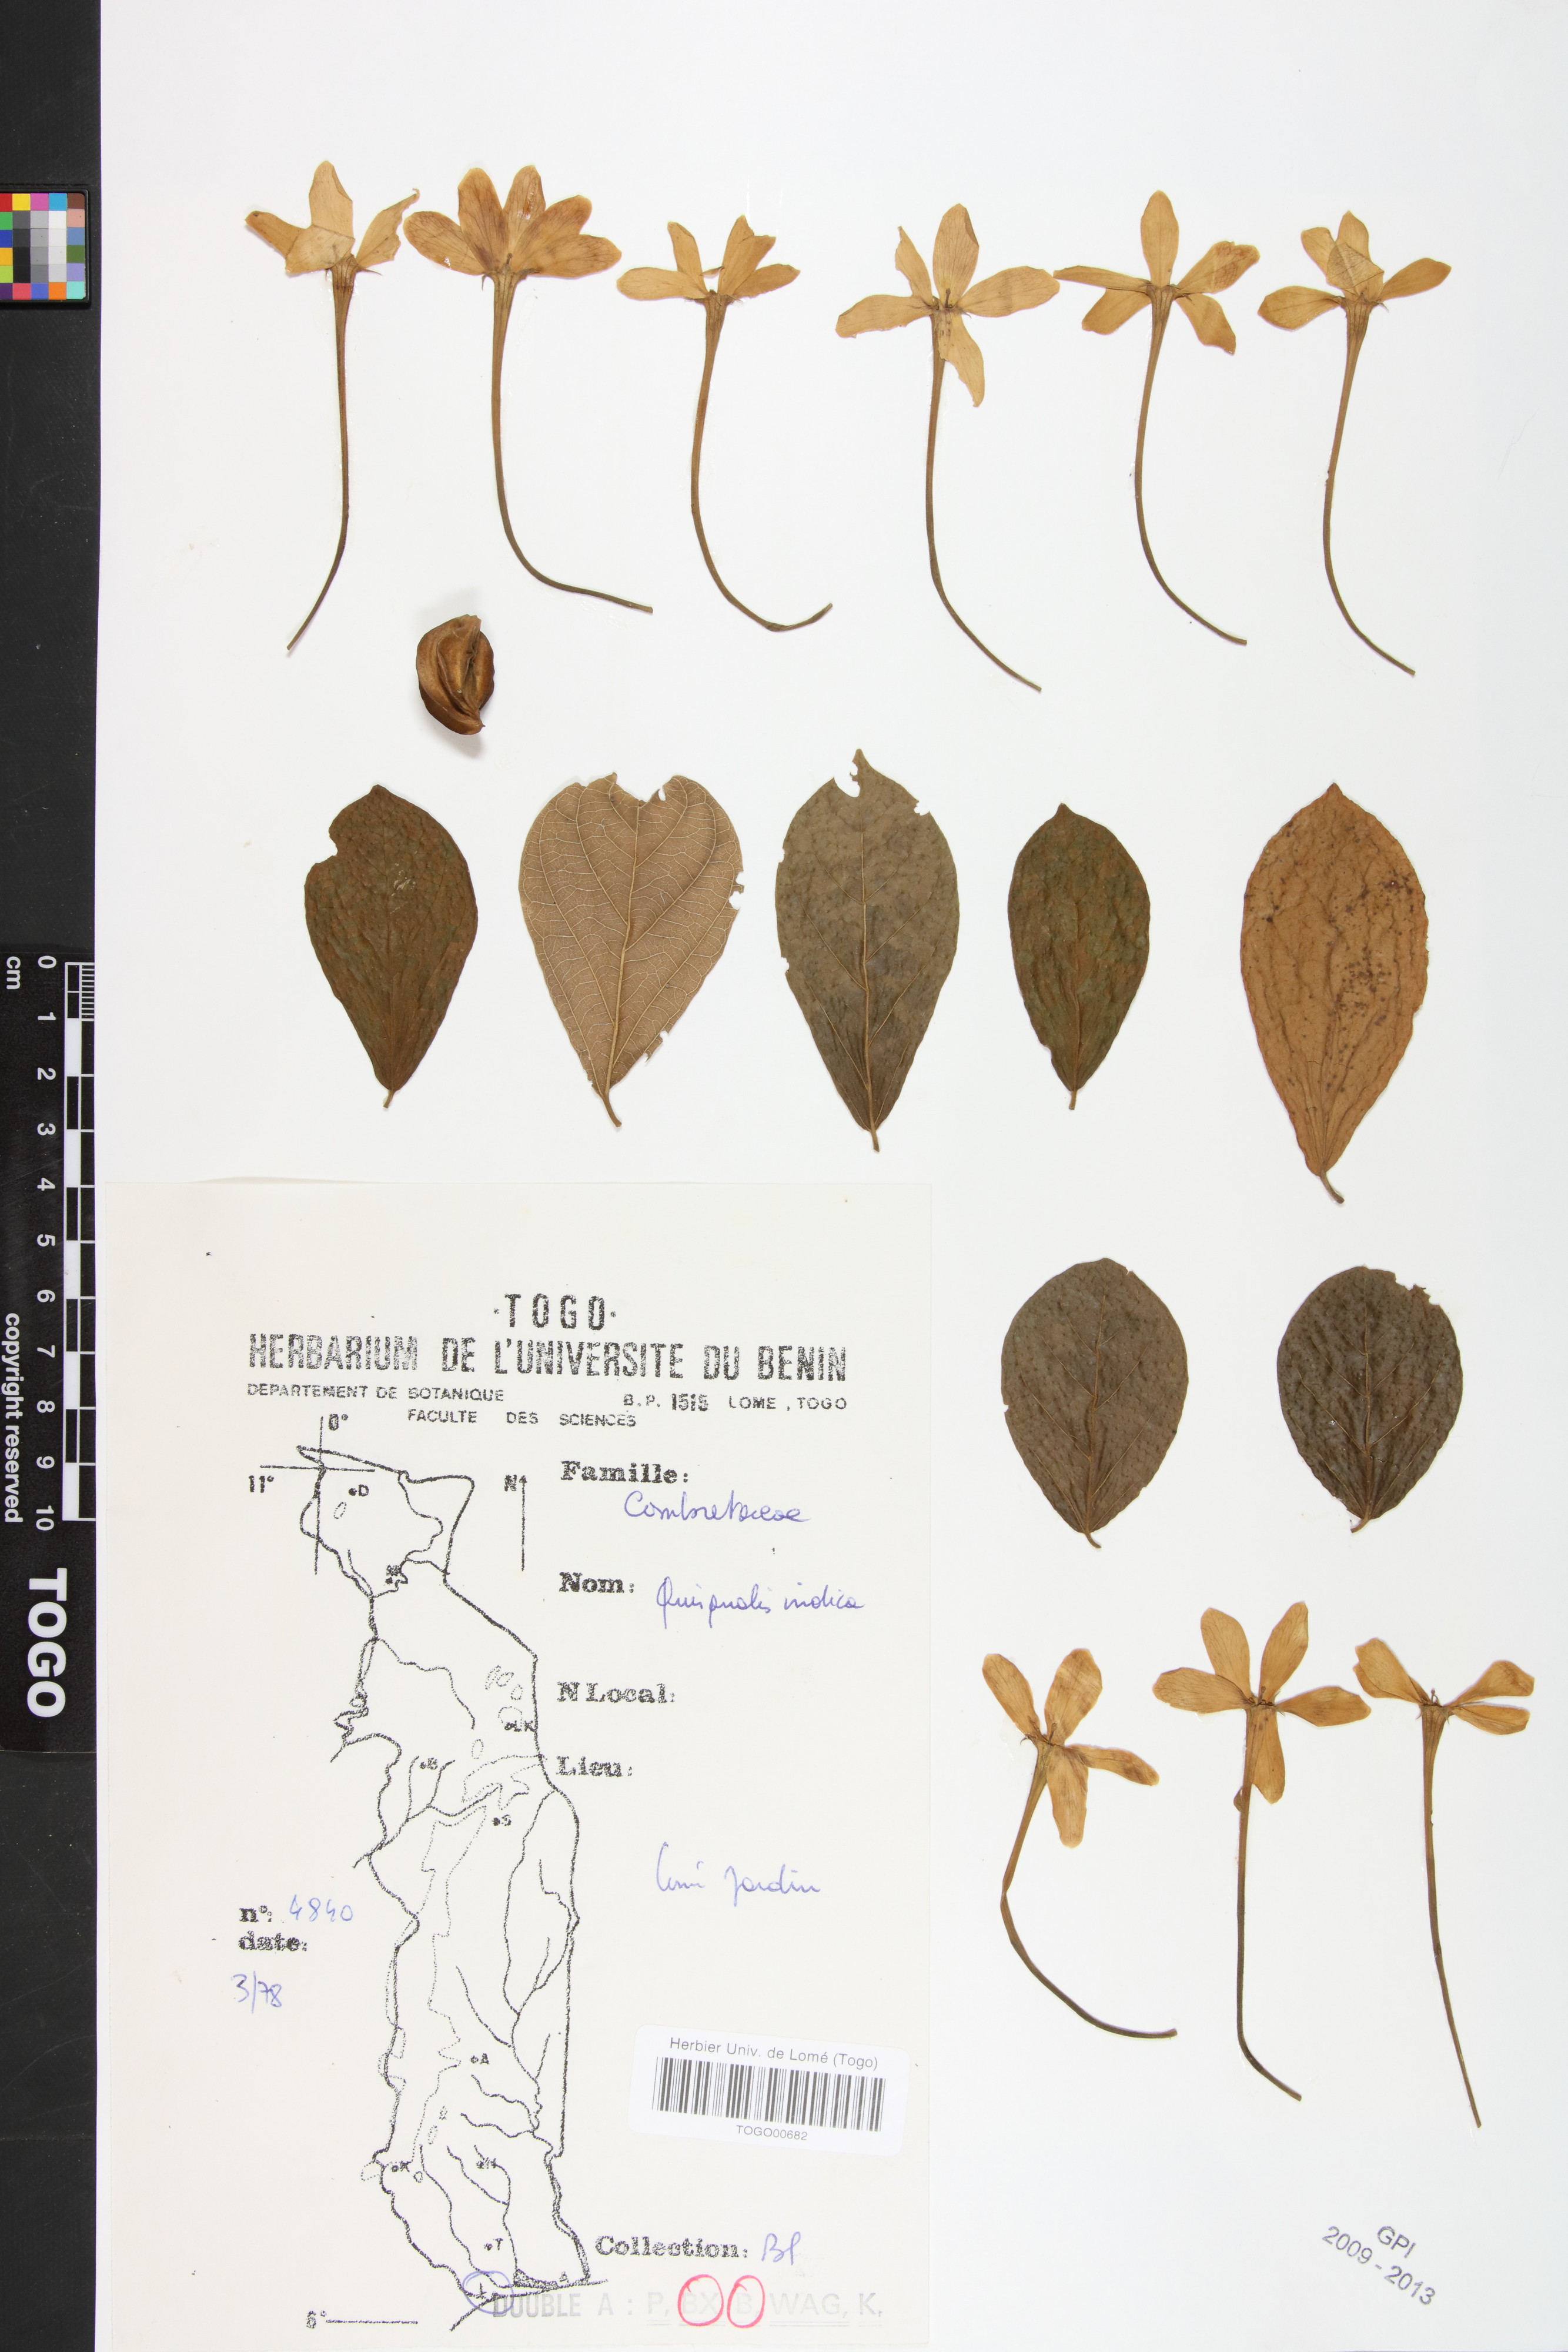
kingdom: Plantae
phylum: Tracheophyta
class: Magnoliopsida
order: Myrtales
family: Combretaceae
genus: Combretum
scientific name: Combretum indicum
